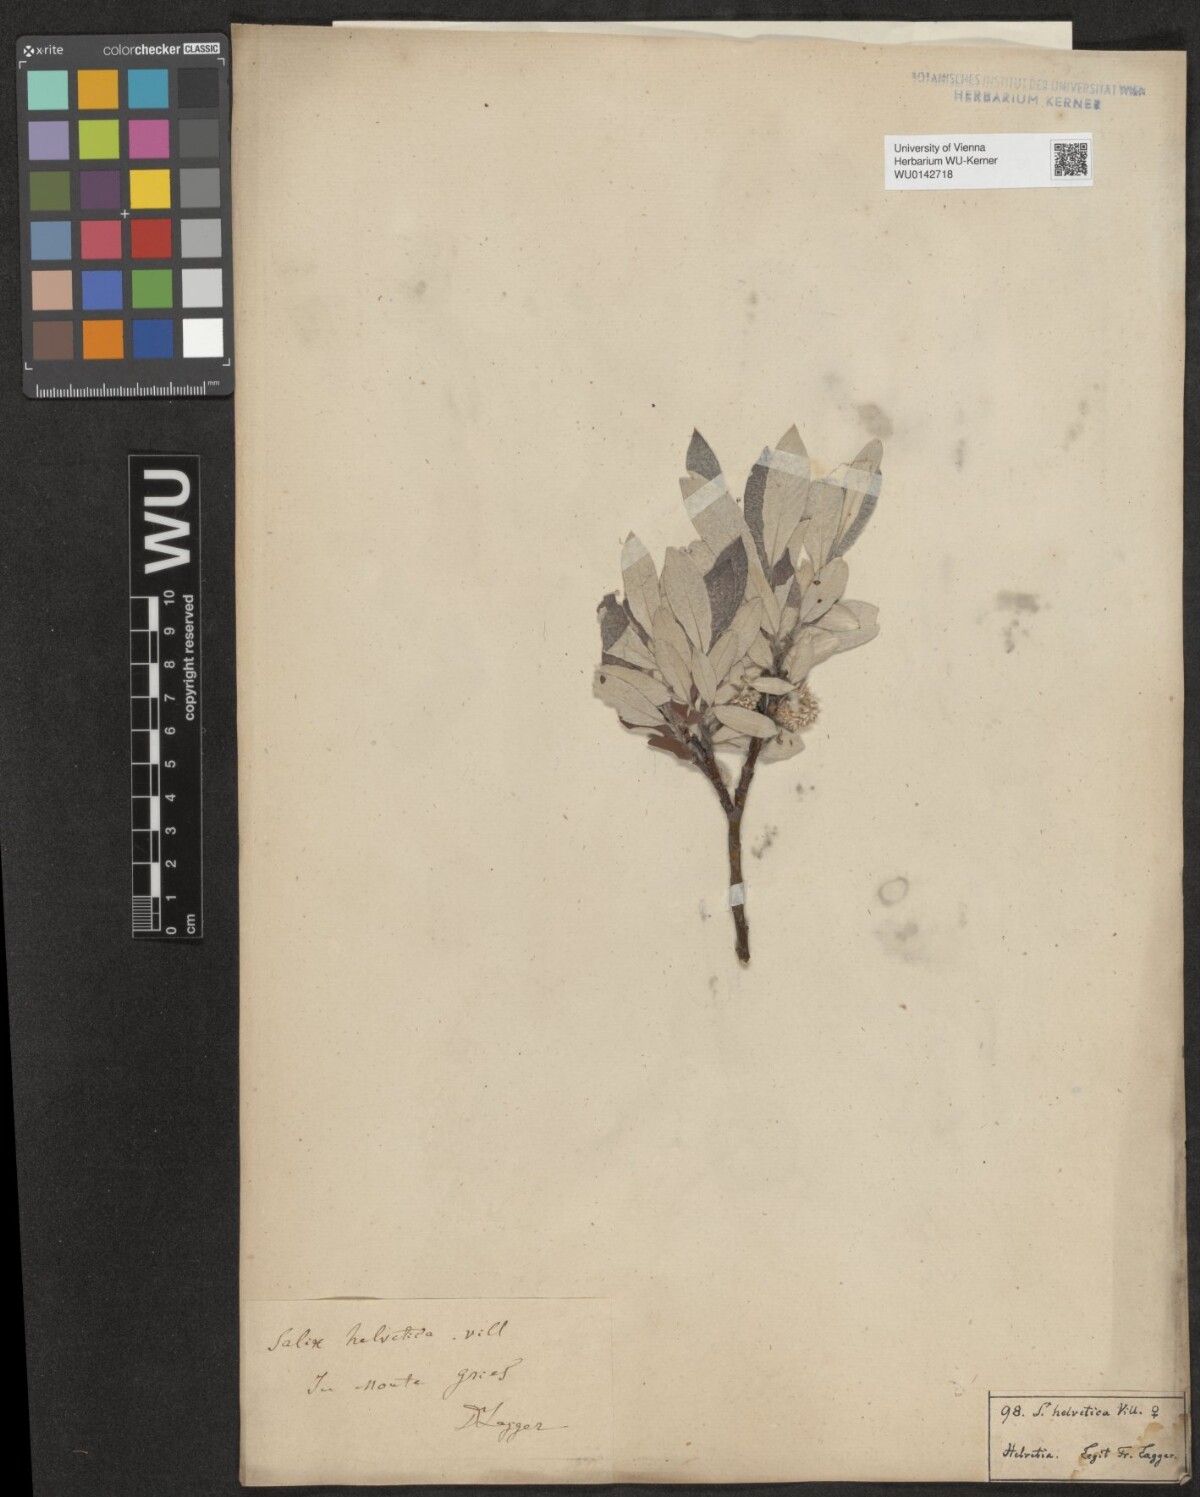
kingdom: Plantae
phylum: Tracheophyta
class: Magnoliopsida
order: Malpighiales
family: Salicaceae
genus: Salix
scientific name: Salix helvetica
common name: Swiss willow
